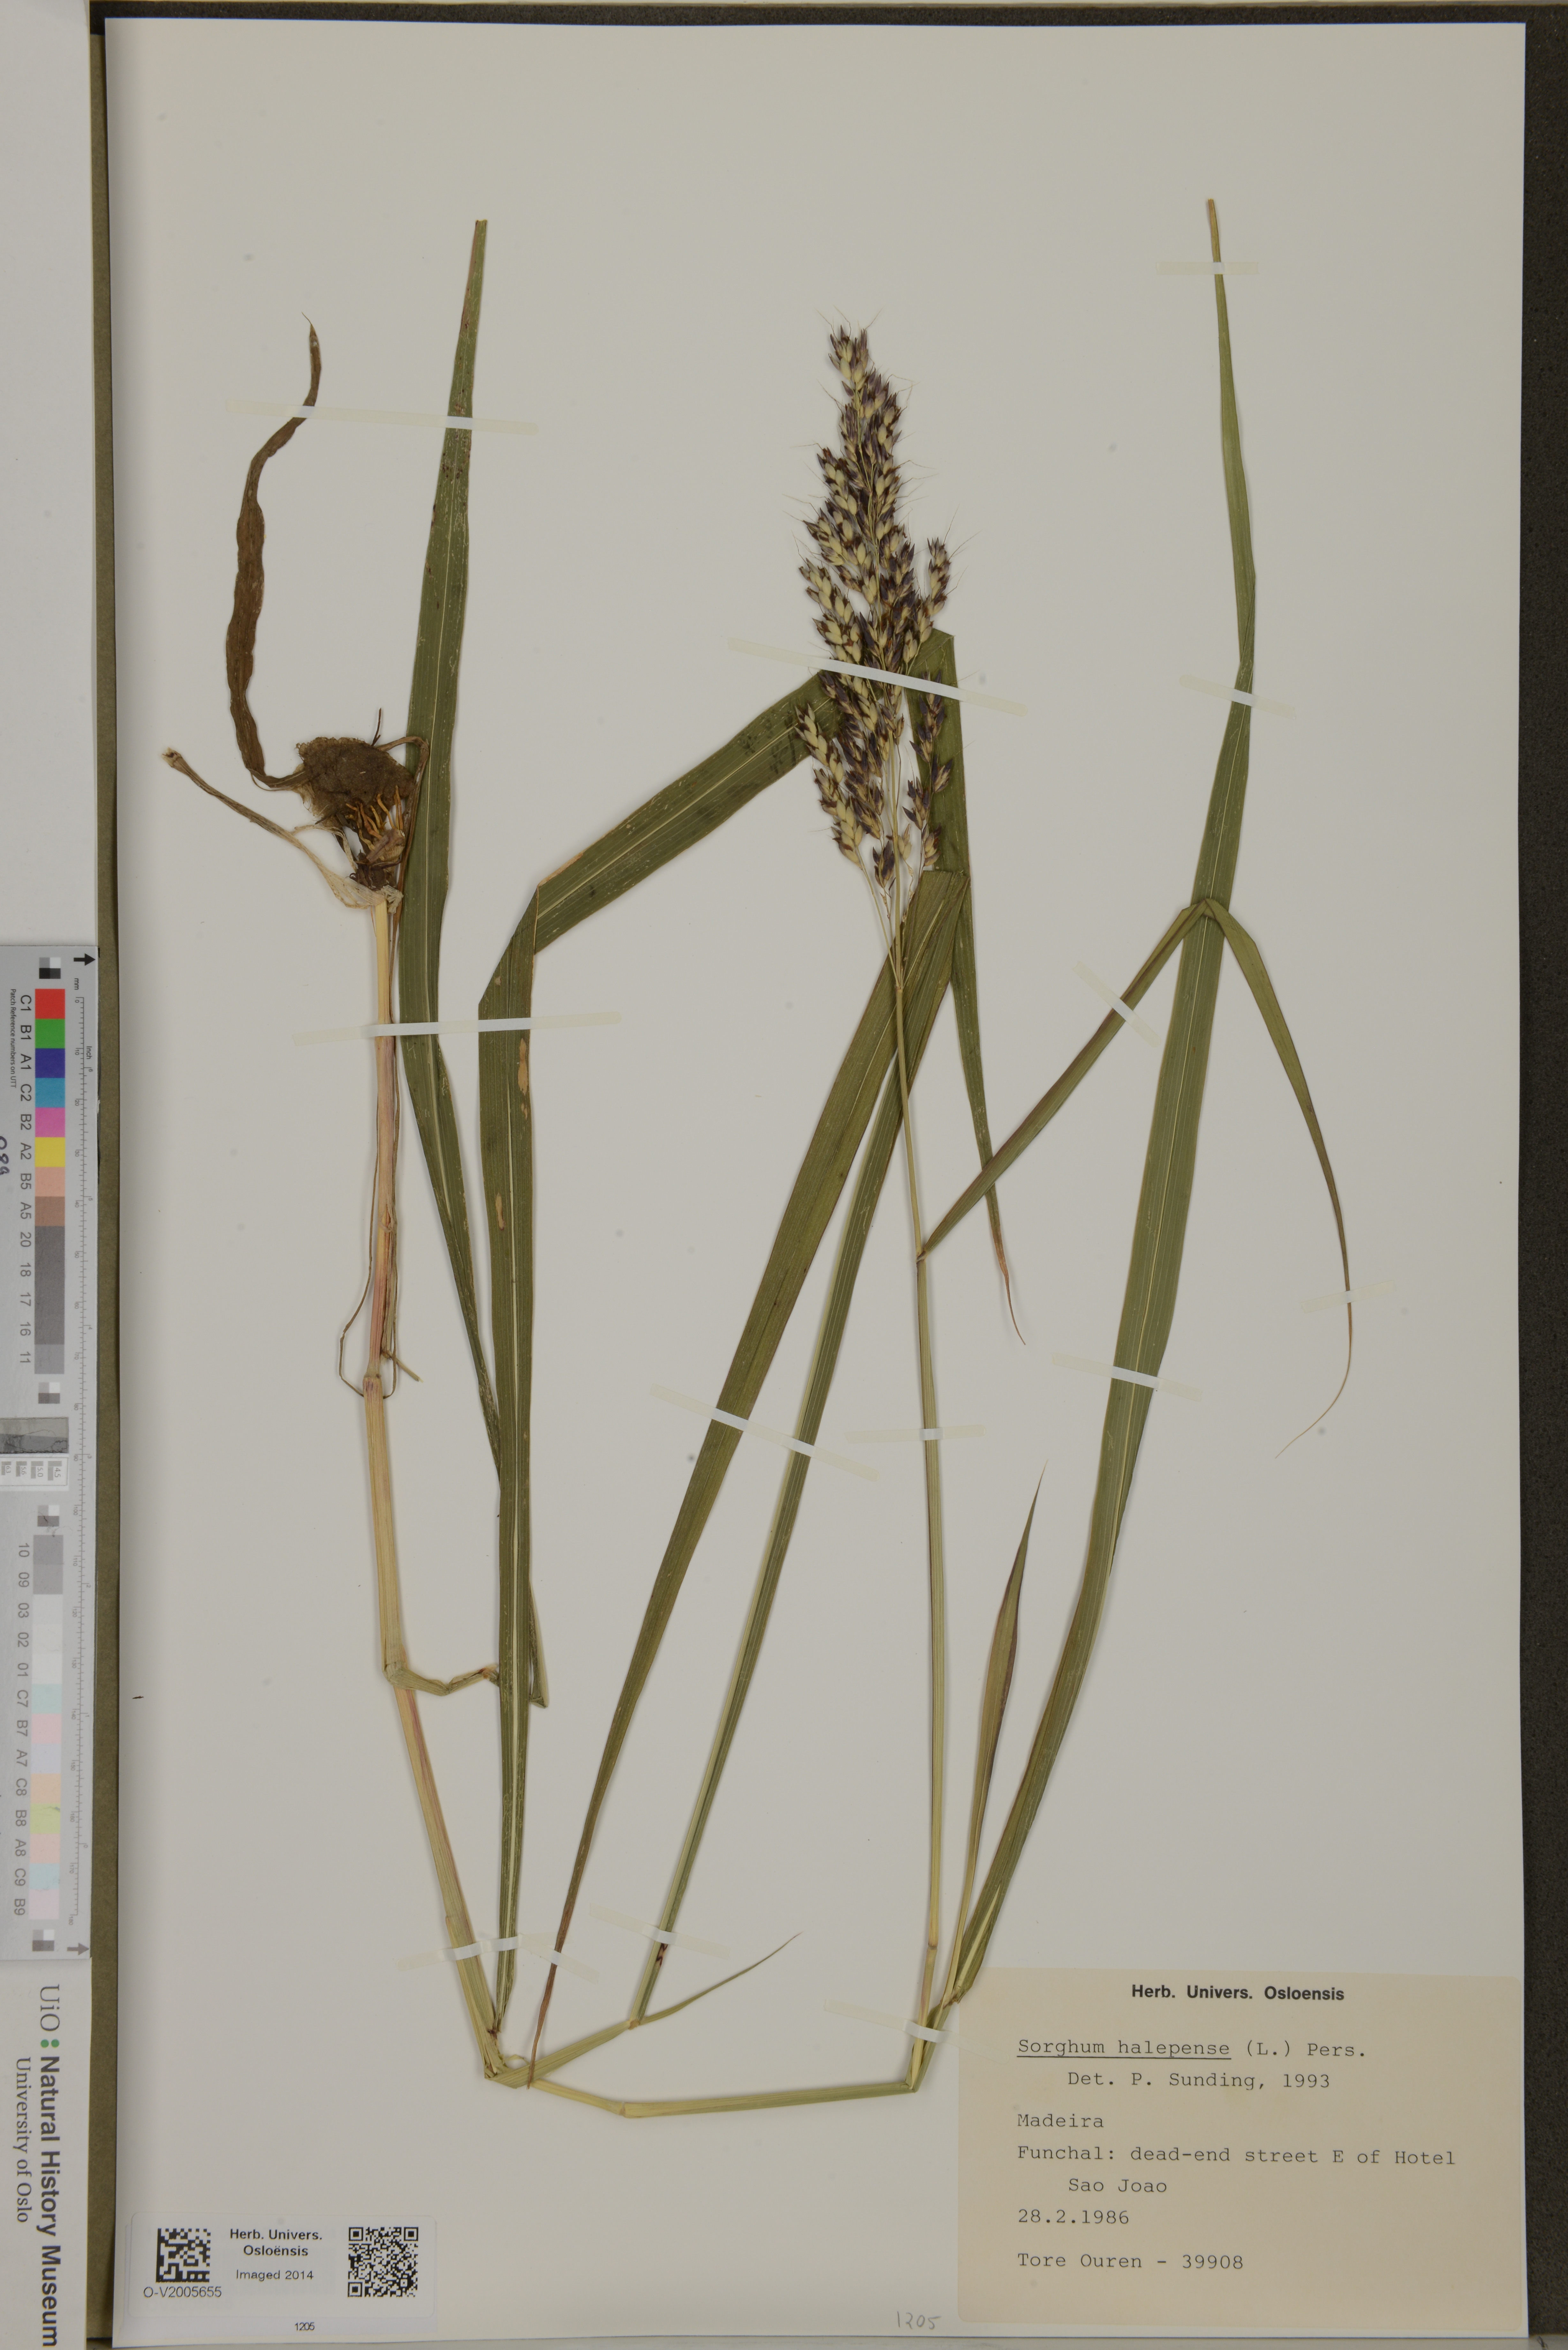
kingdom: Plantae
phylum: Tracheophyta
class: Liliopsida
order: Poales
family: Poaceae
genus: Sorghum
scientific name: Sorghum halepense
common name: Johnson-grass
